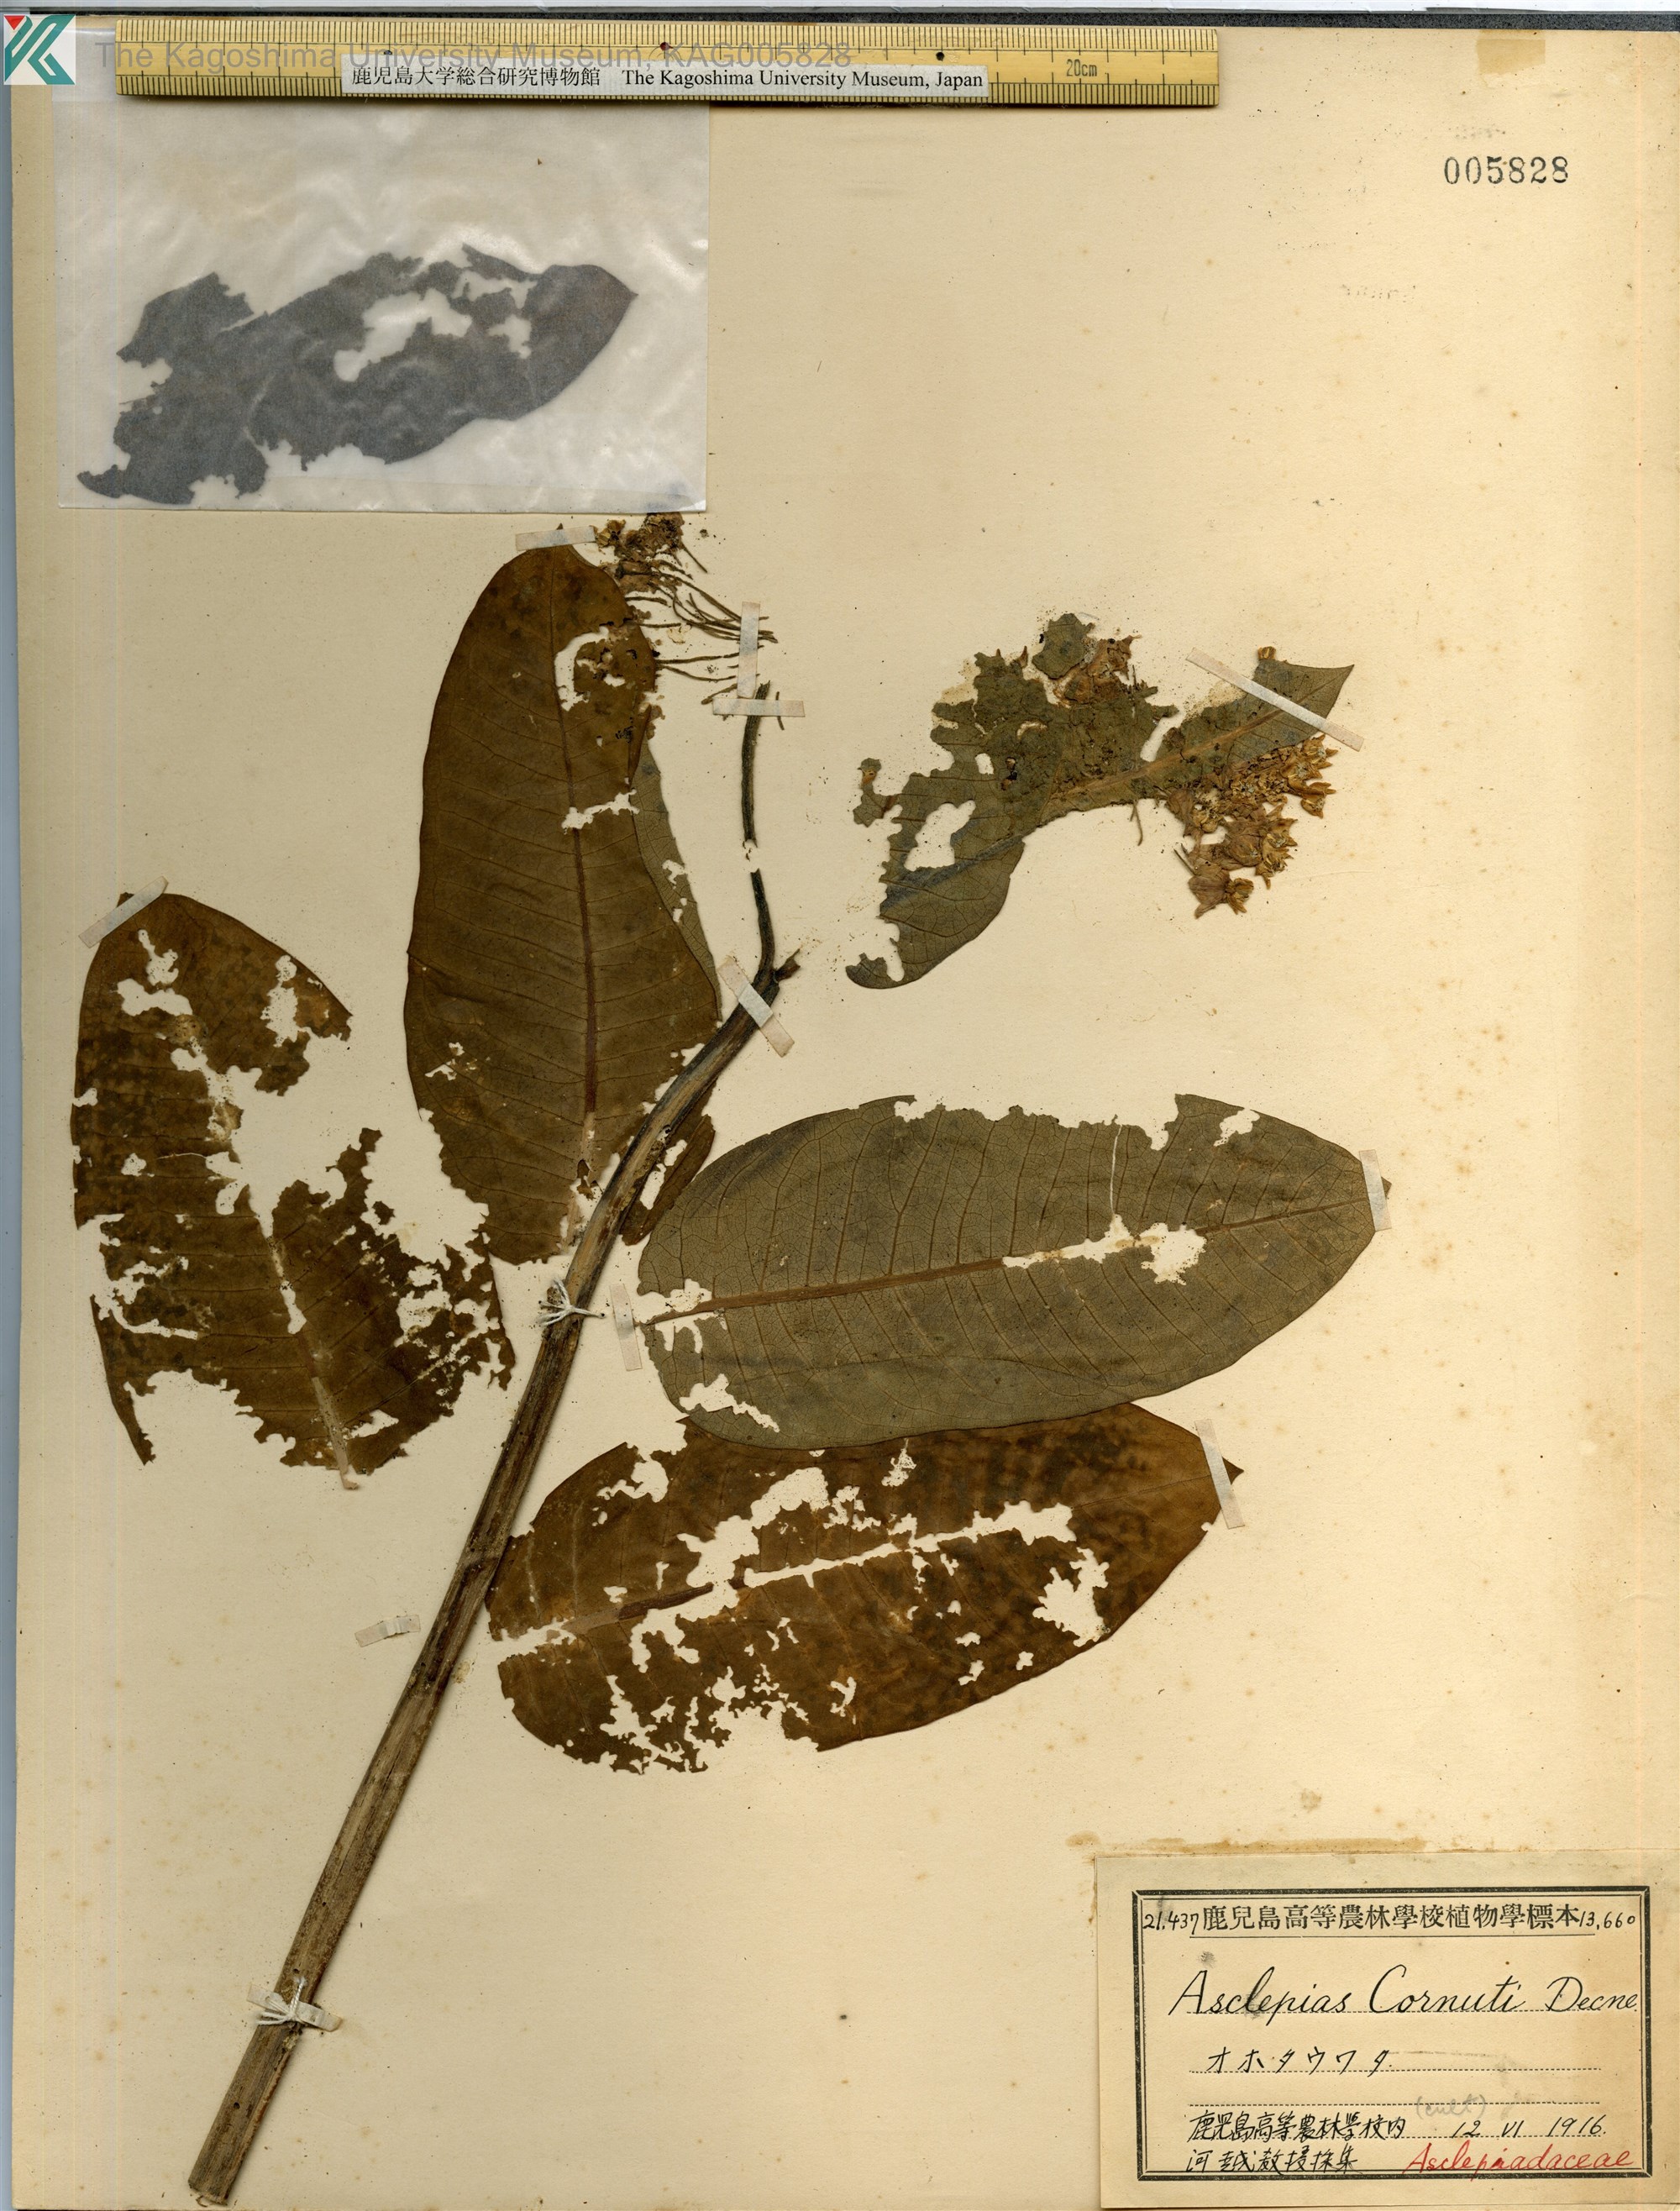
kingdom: Plantae
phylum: Tracheophyta
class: Magnoliopsida
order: Gentianales
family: Apocynaceae
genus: Asclepias
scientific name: Asclepias syriaca
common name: Common milkweed
